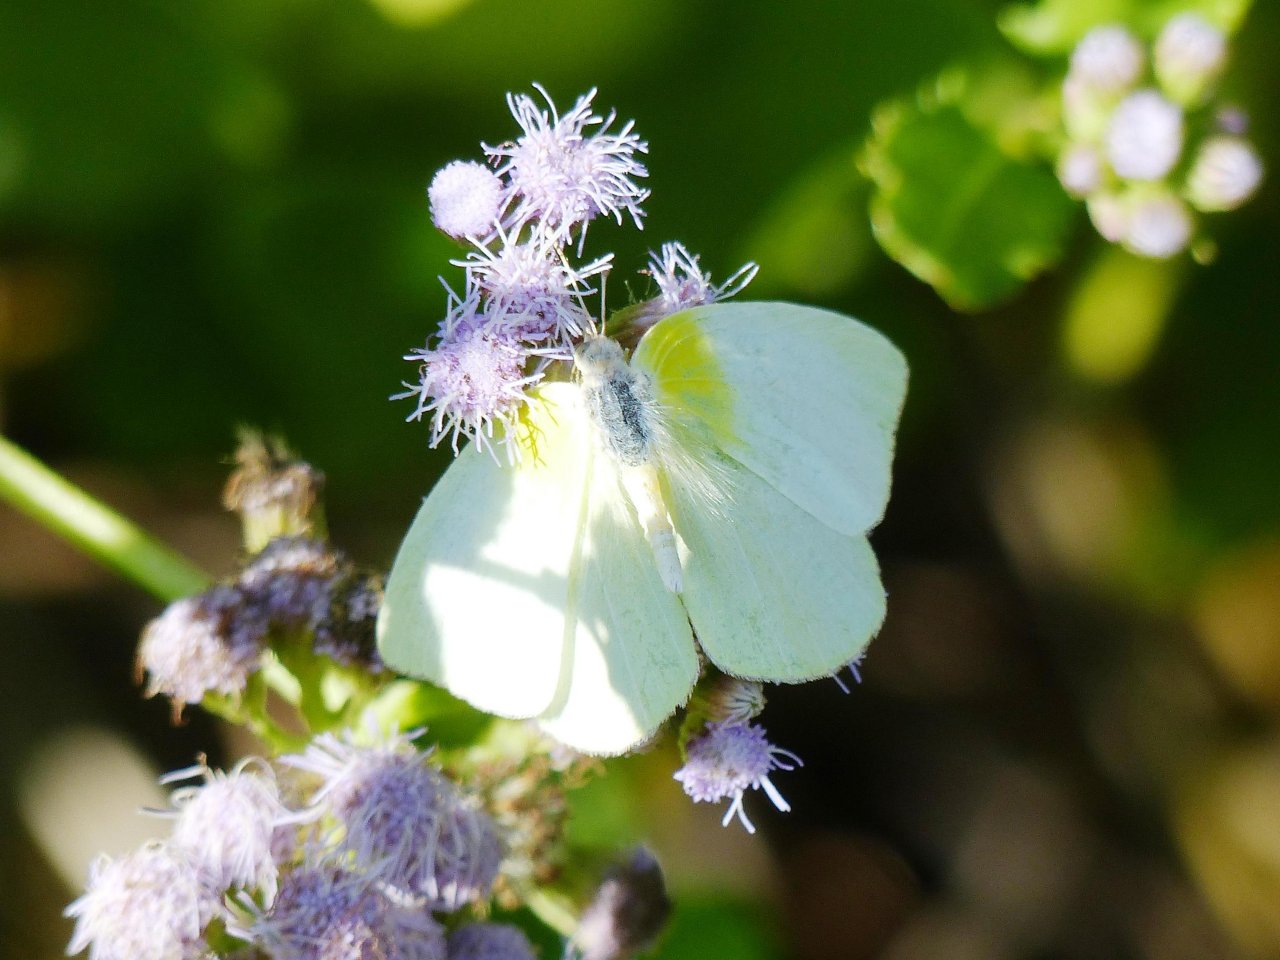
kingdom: Animalia
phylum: Arthropoda
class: Insecta
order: Lepidoptera
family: Pieridae
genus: Kricogonia
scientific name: Kricogonia lyside
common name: Lyside Sulphur
